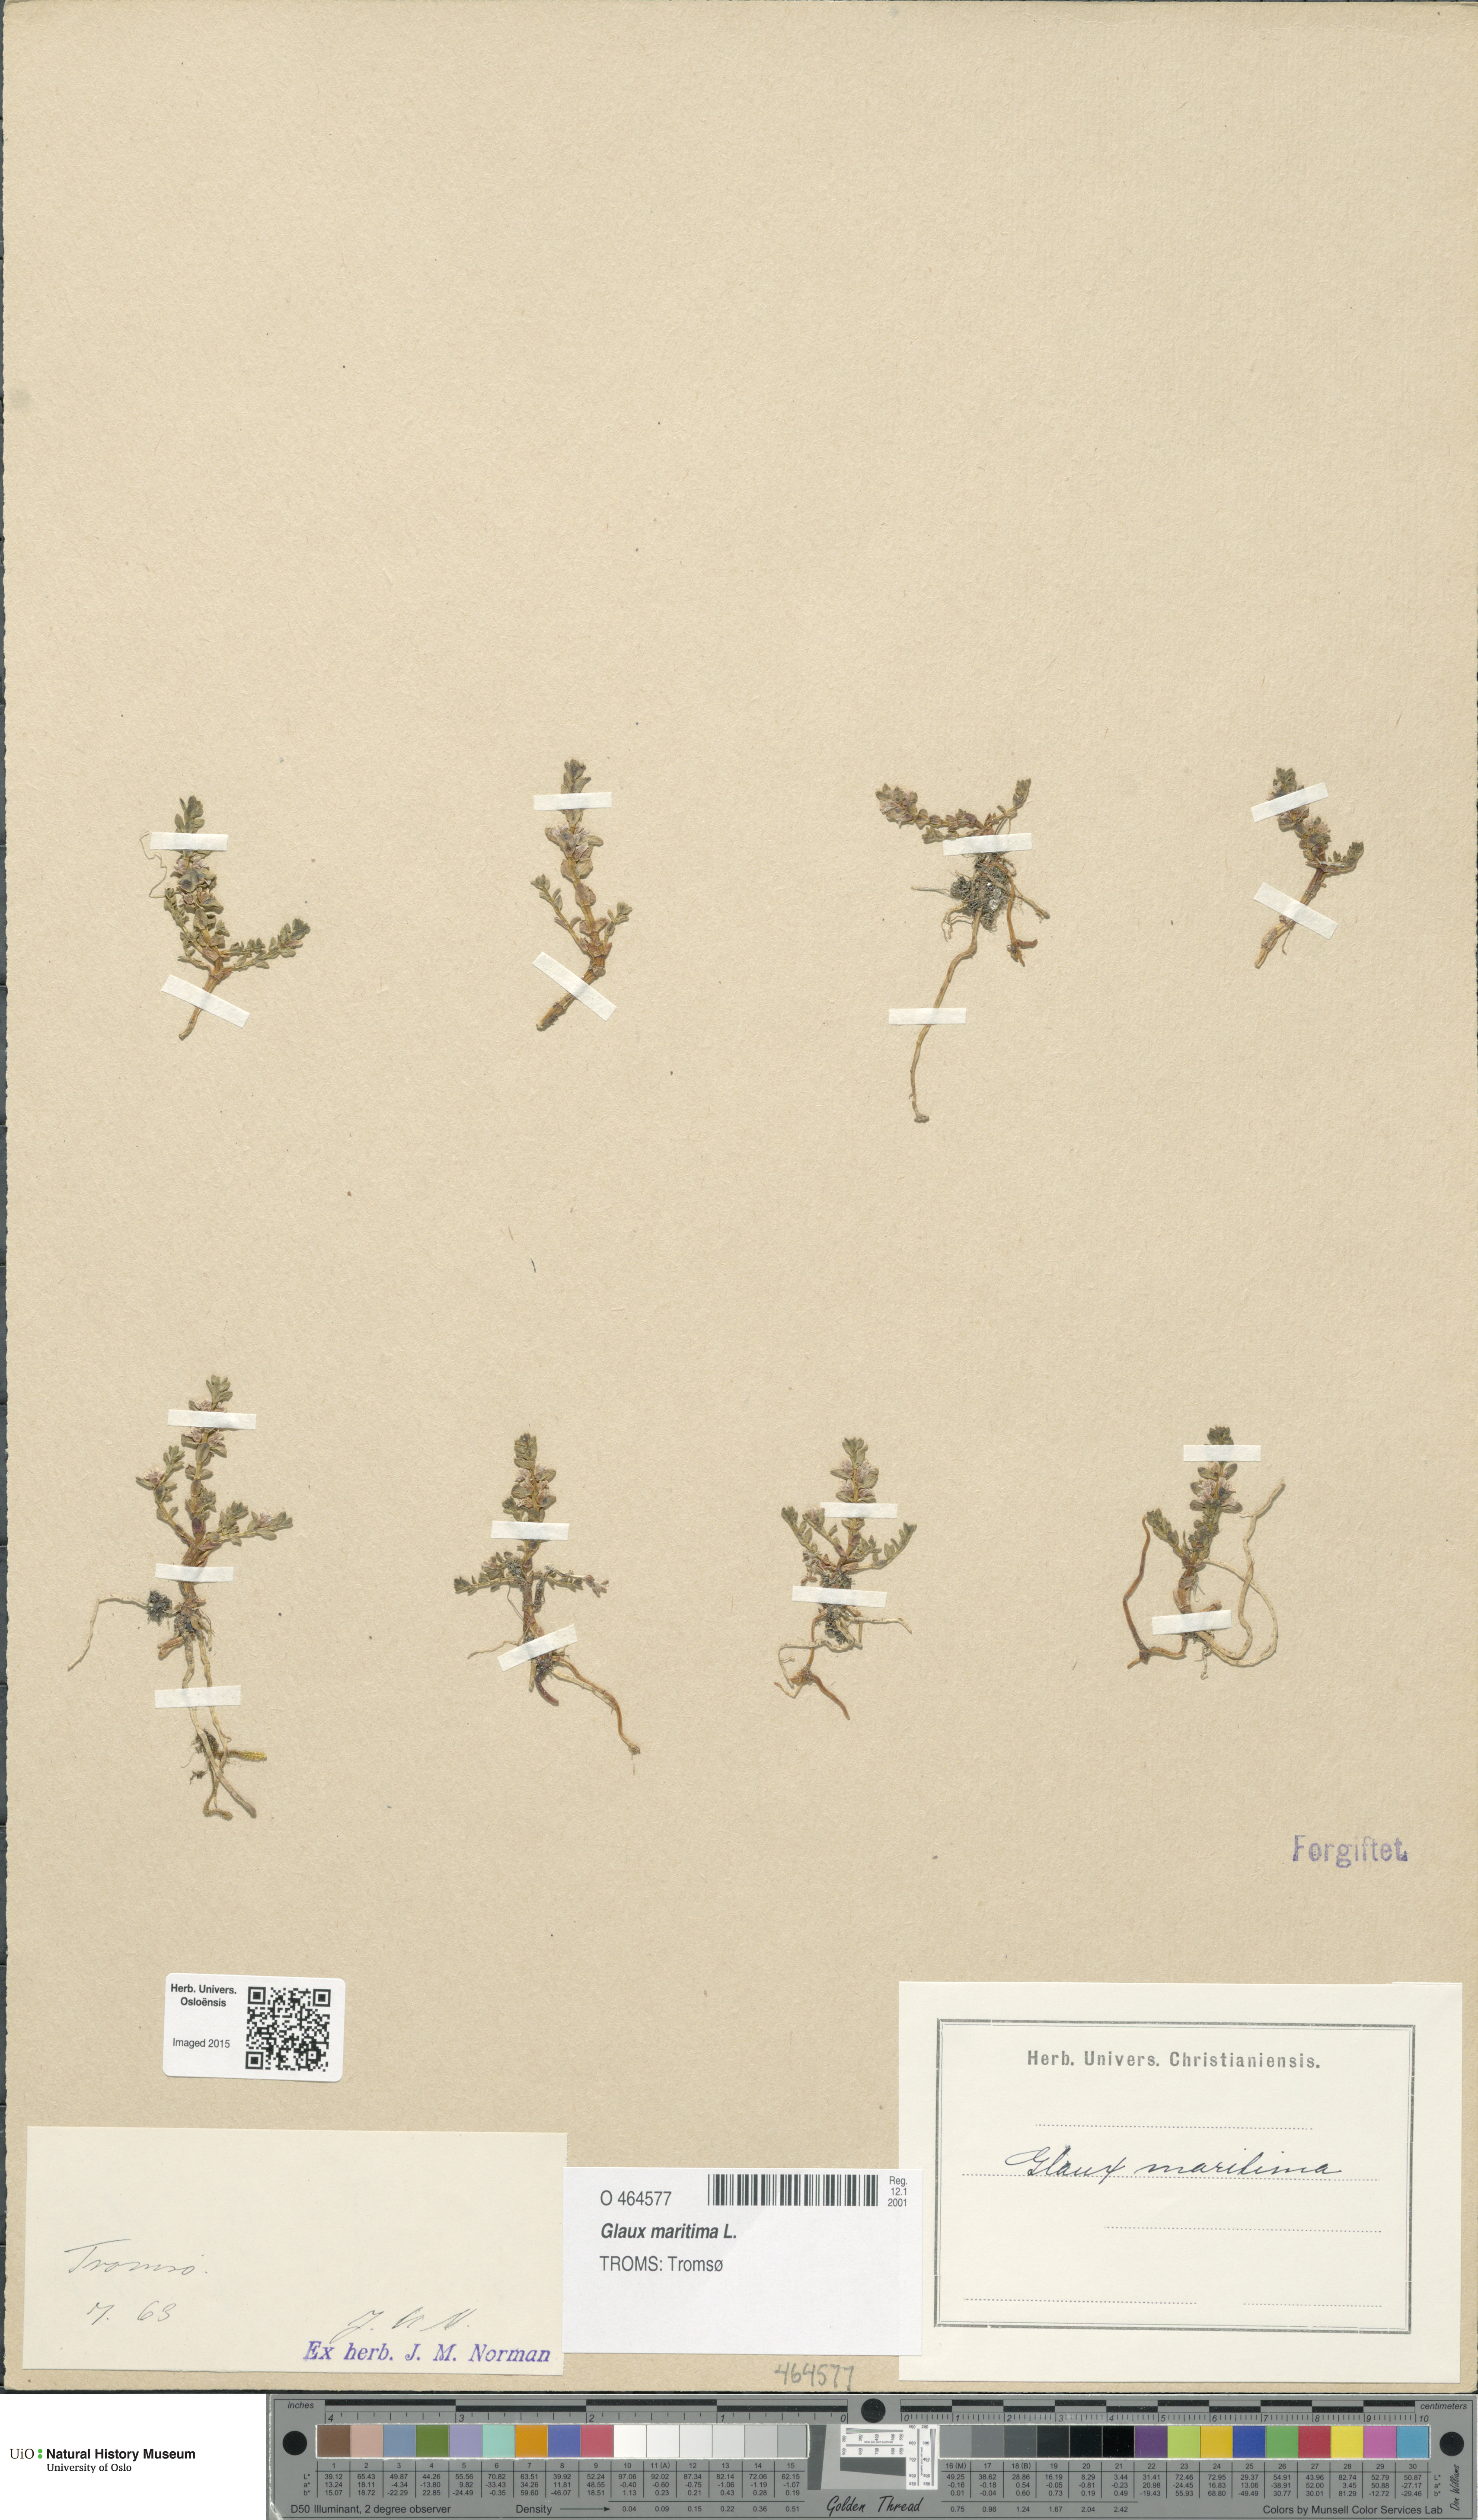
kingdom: Plantae
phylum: Tracheophyta
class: Magnoliopsida
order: Ericales
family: Primulaceae
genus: Lysimachia
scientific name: Lysimachia maritima
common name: Sea milkwort
